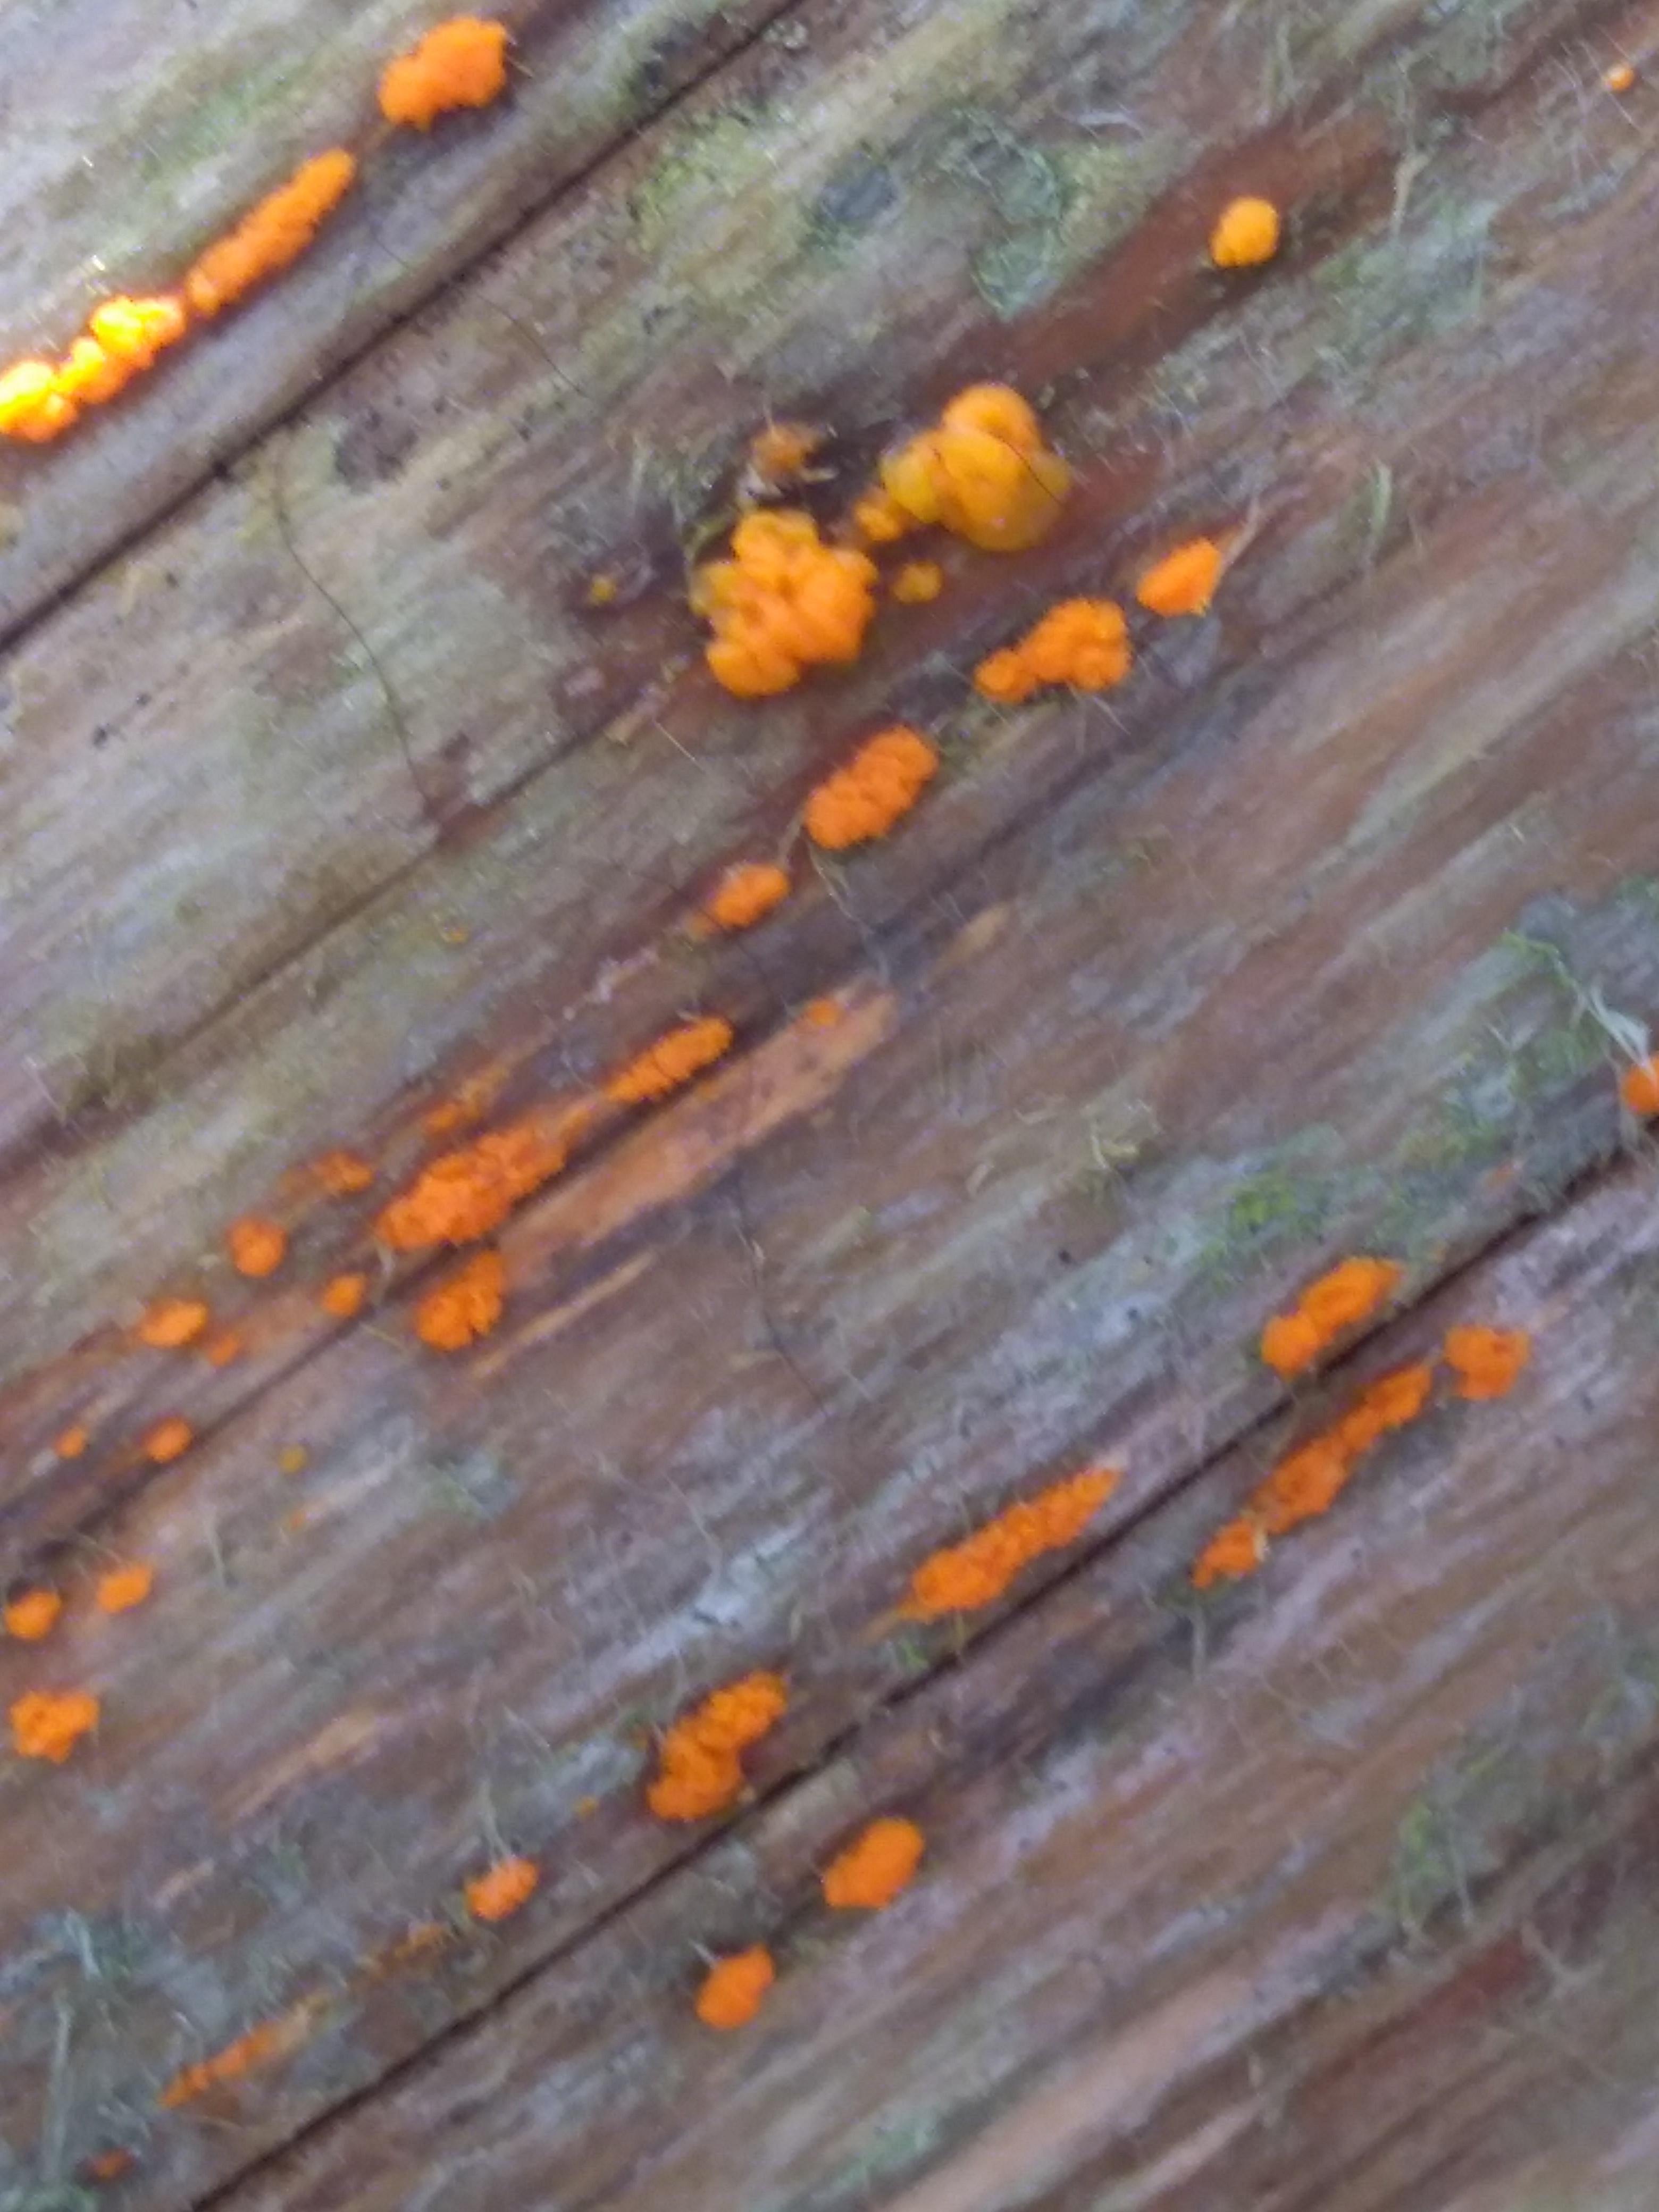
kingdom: Fungi
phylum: Basidiomycota
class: Dacrymycetes
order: Dacrymycetales
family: Dacrymycetaceae
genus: Dacrymyces
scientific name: Dacrymyces stillatus
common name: almindelig tåresvamp
